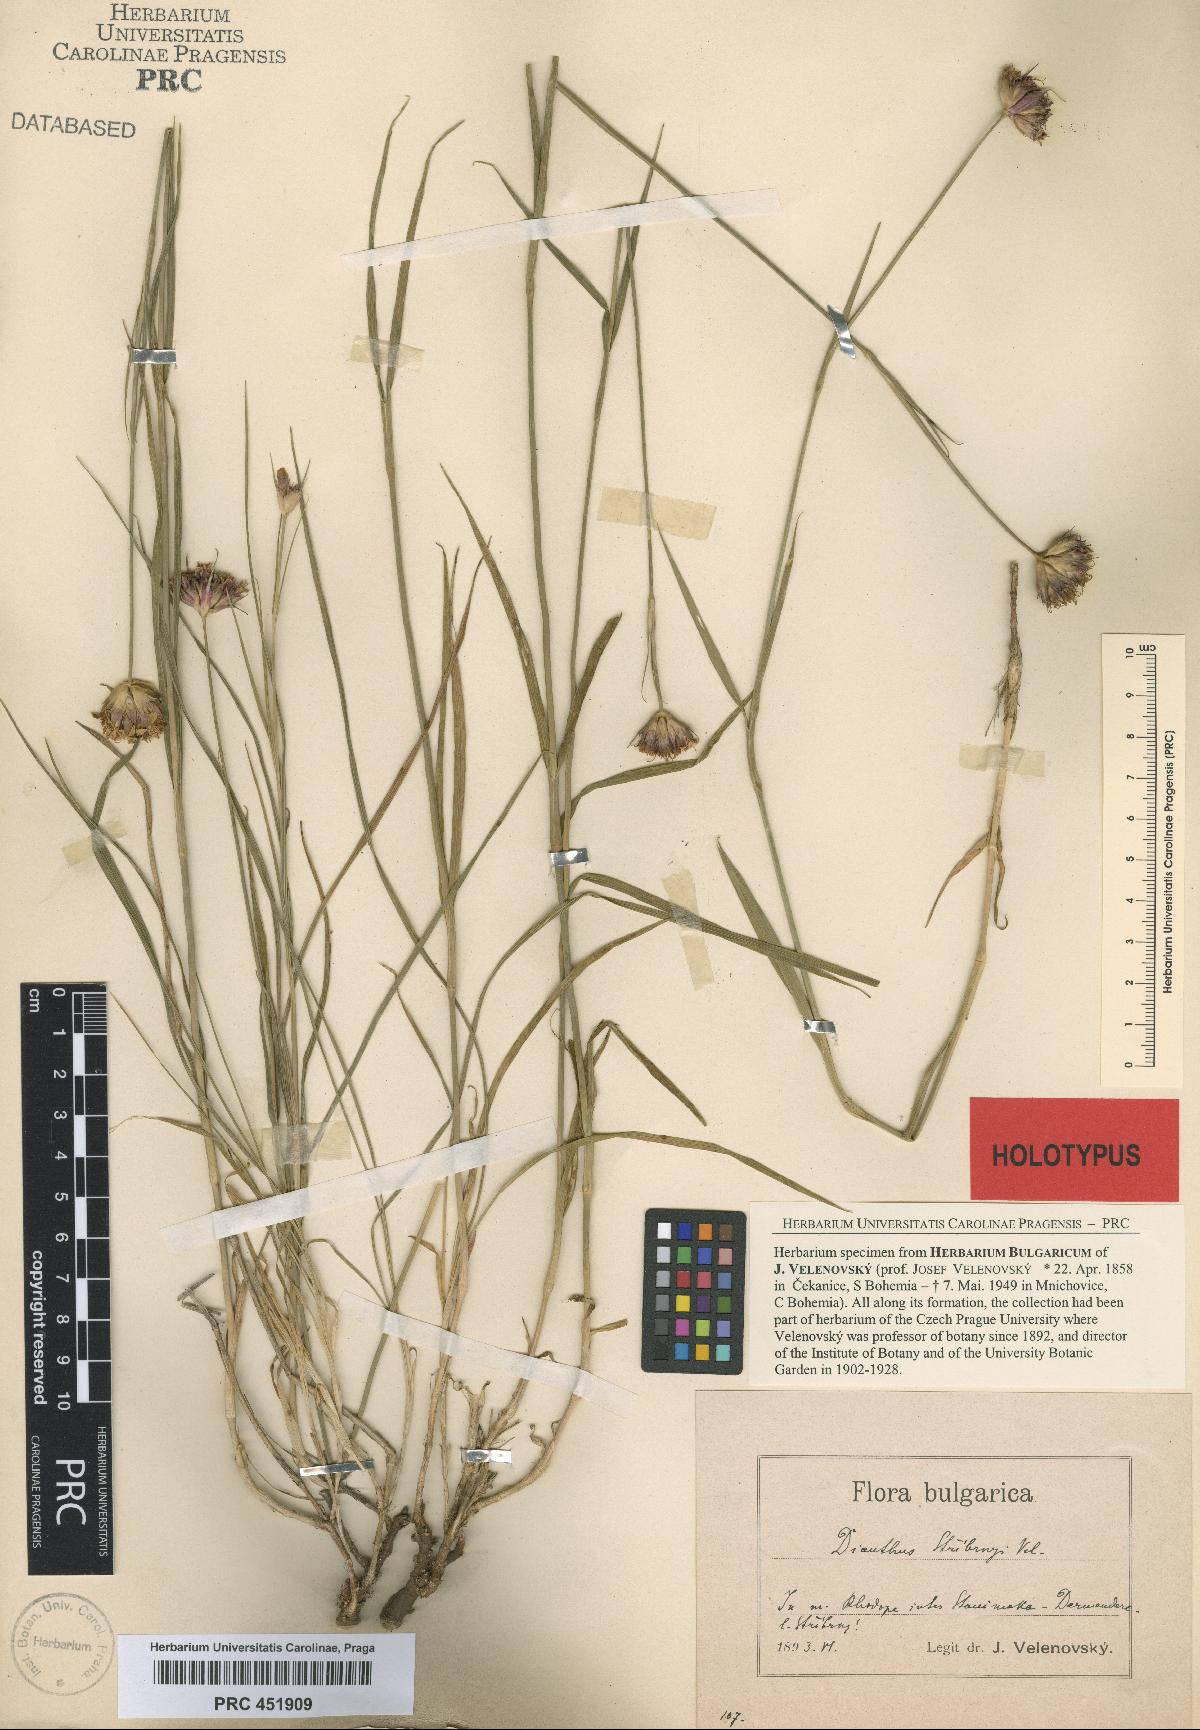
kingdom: Plantae
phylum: Tracheophyta
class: Magnoliopsida
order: Caryophyllales
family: Caryophyllaceae
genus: Dianthus
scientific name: Dianthus stribrnyi
